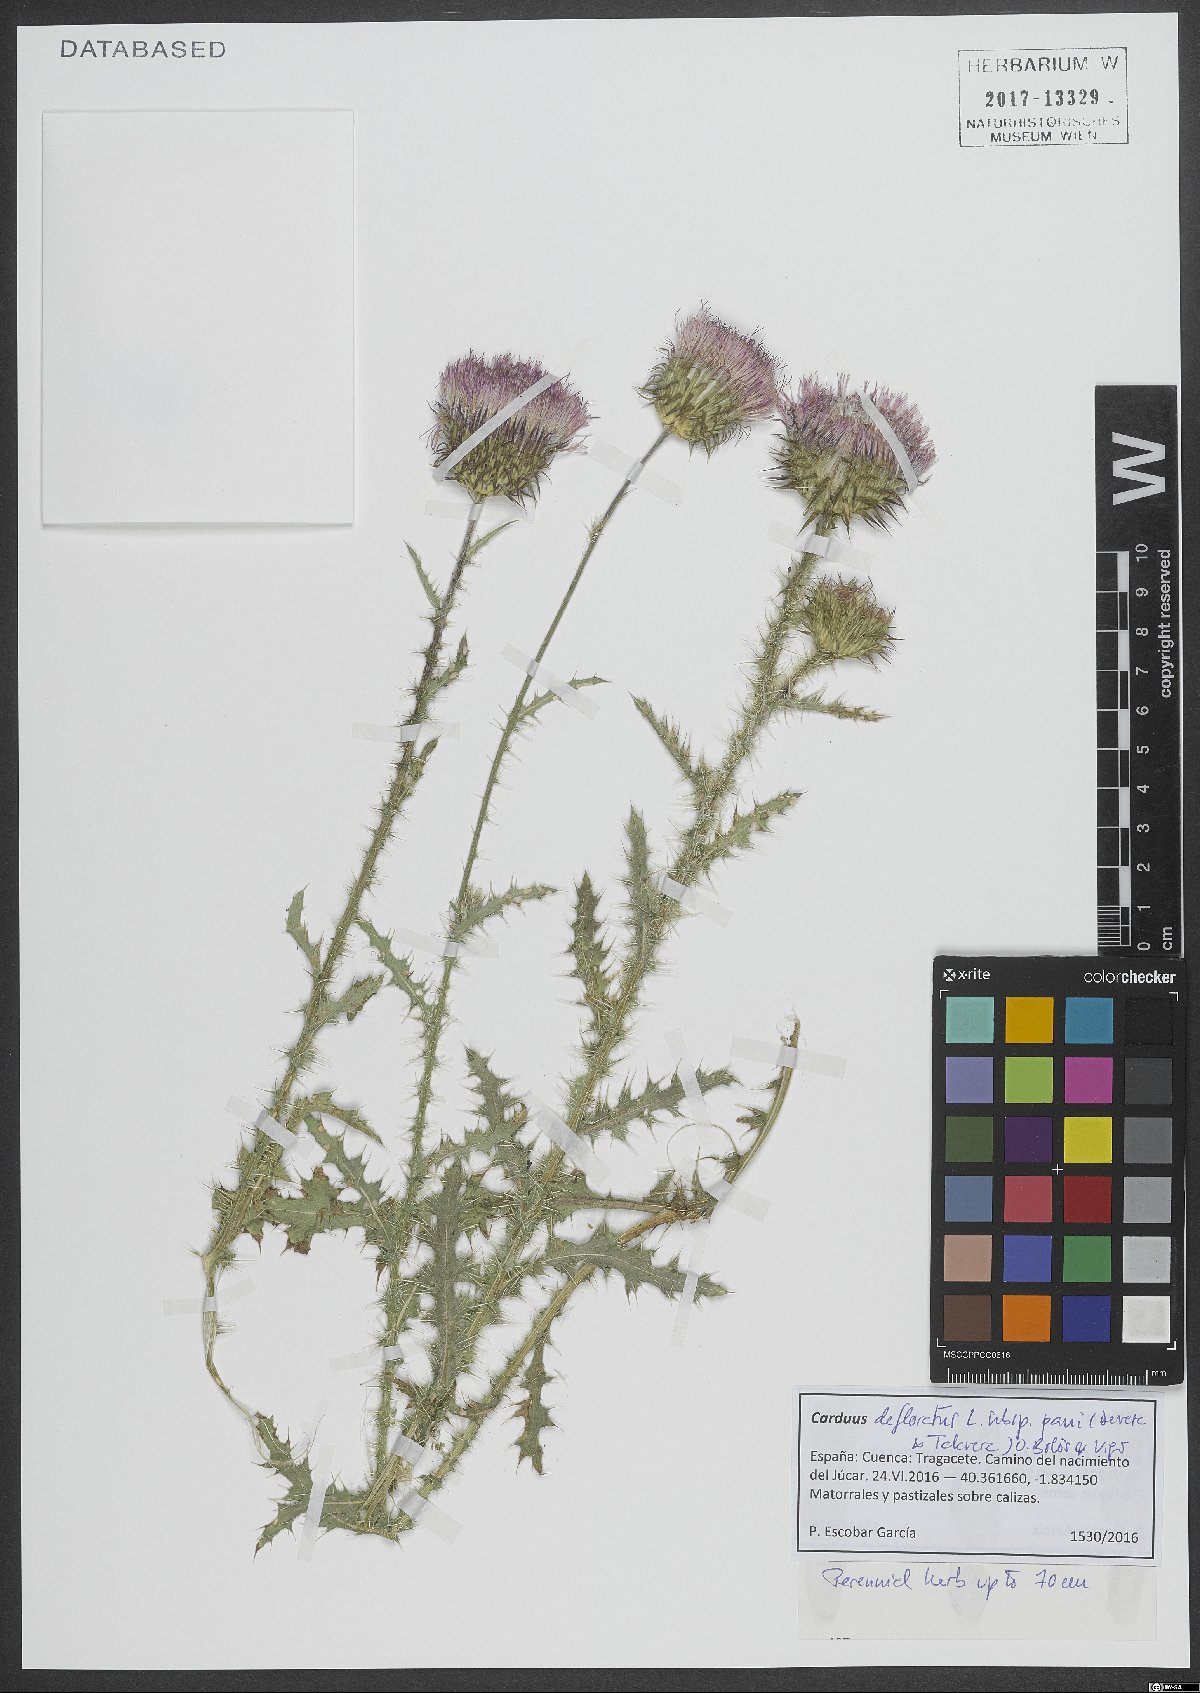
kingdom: Plantae
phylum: Tracheophyta
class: Magnoliopsida
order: Asterales
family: Asteraceae
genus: Carduus
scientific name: Carduus paui
